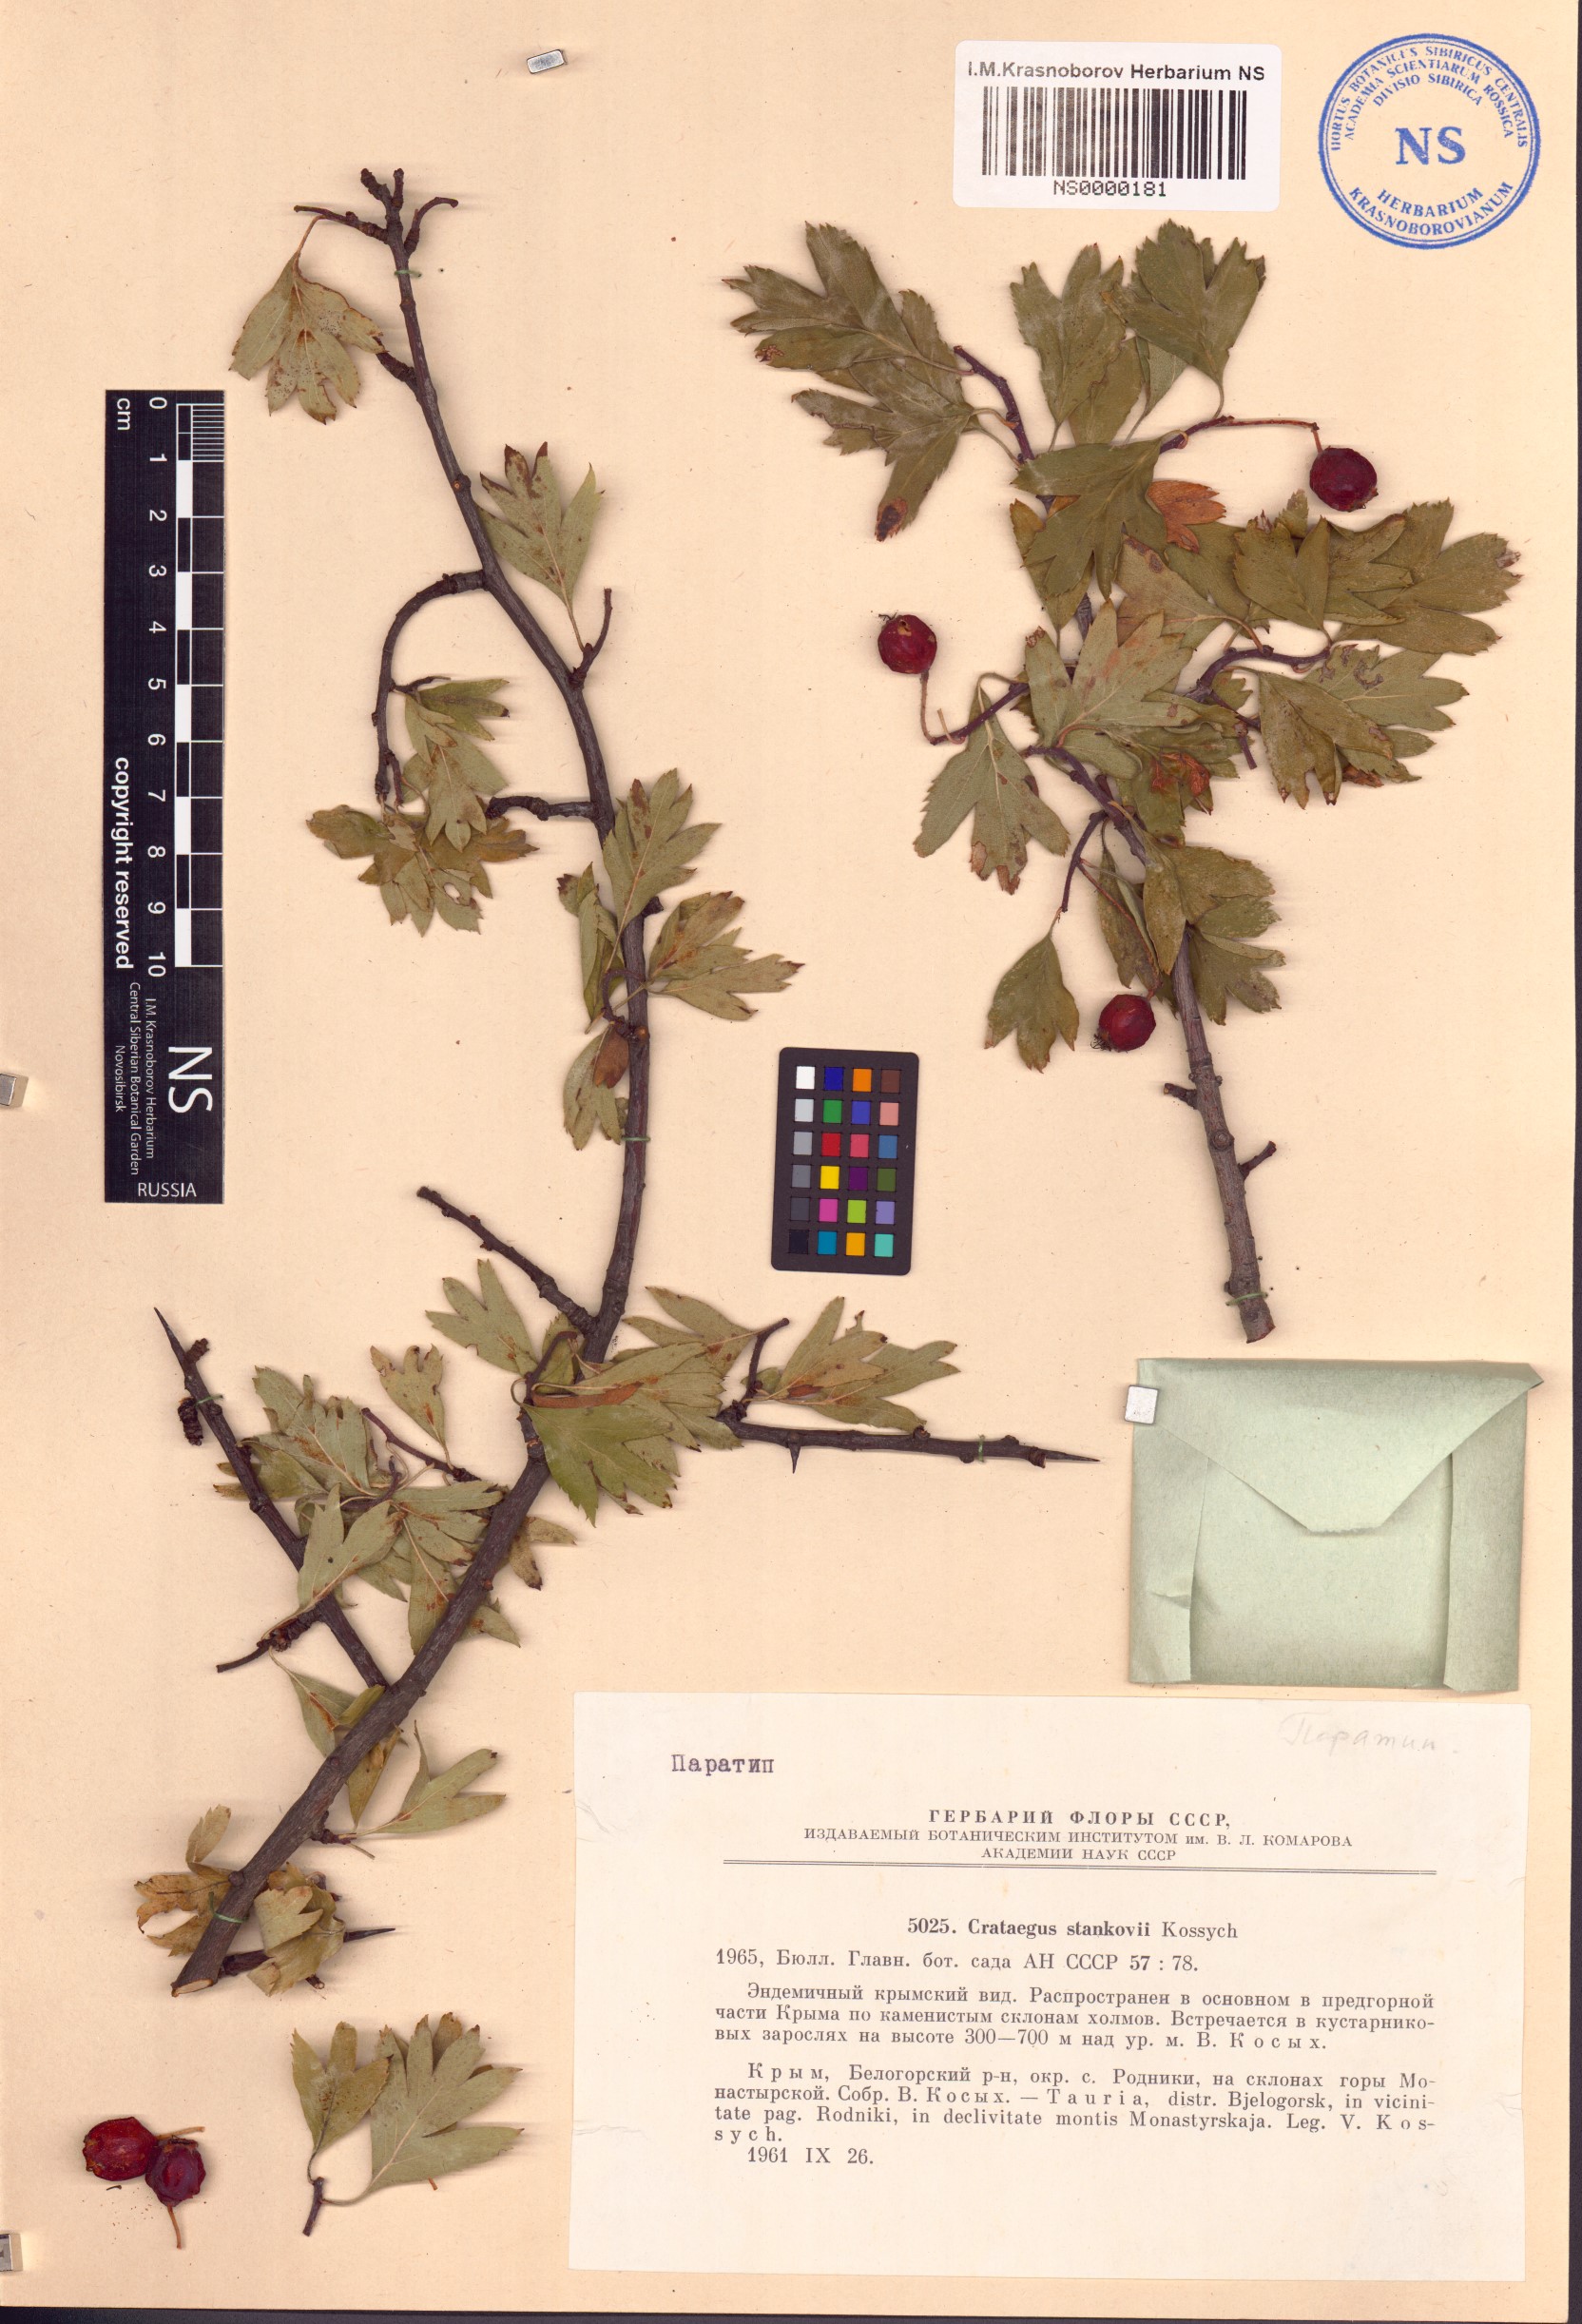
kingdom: Plantae
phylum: Tracheophyta
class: Magnoliopsida
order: Rosales
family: Rosaceae
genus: Crataegus
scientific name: Crataegus meyeri
